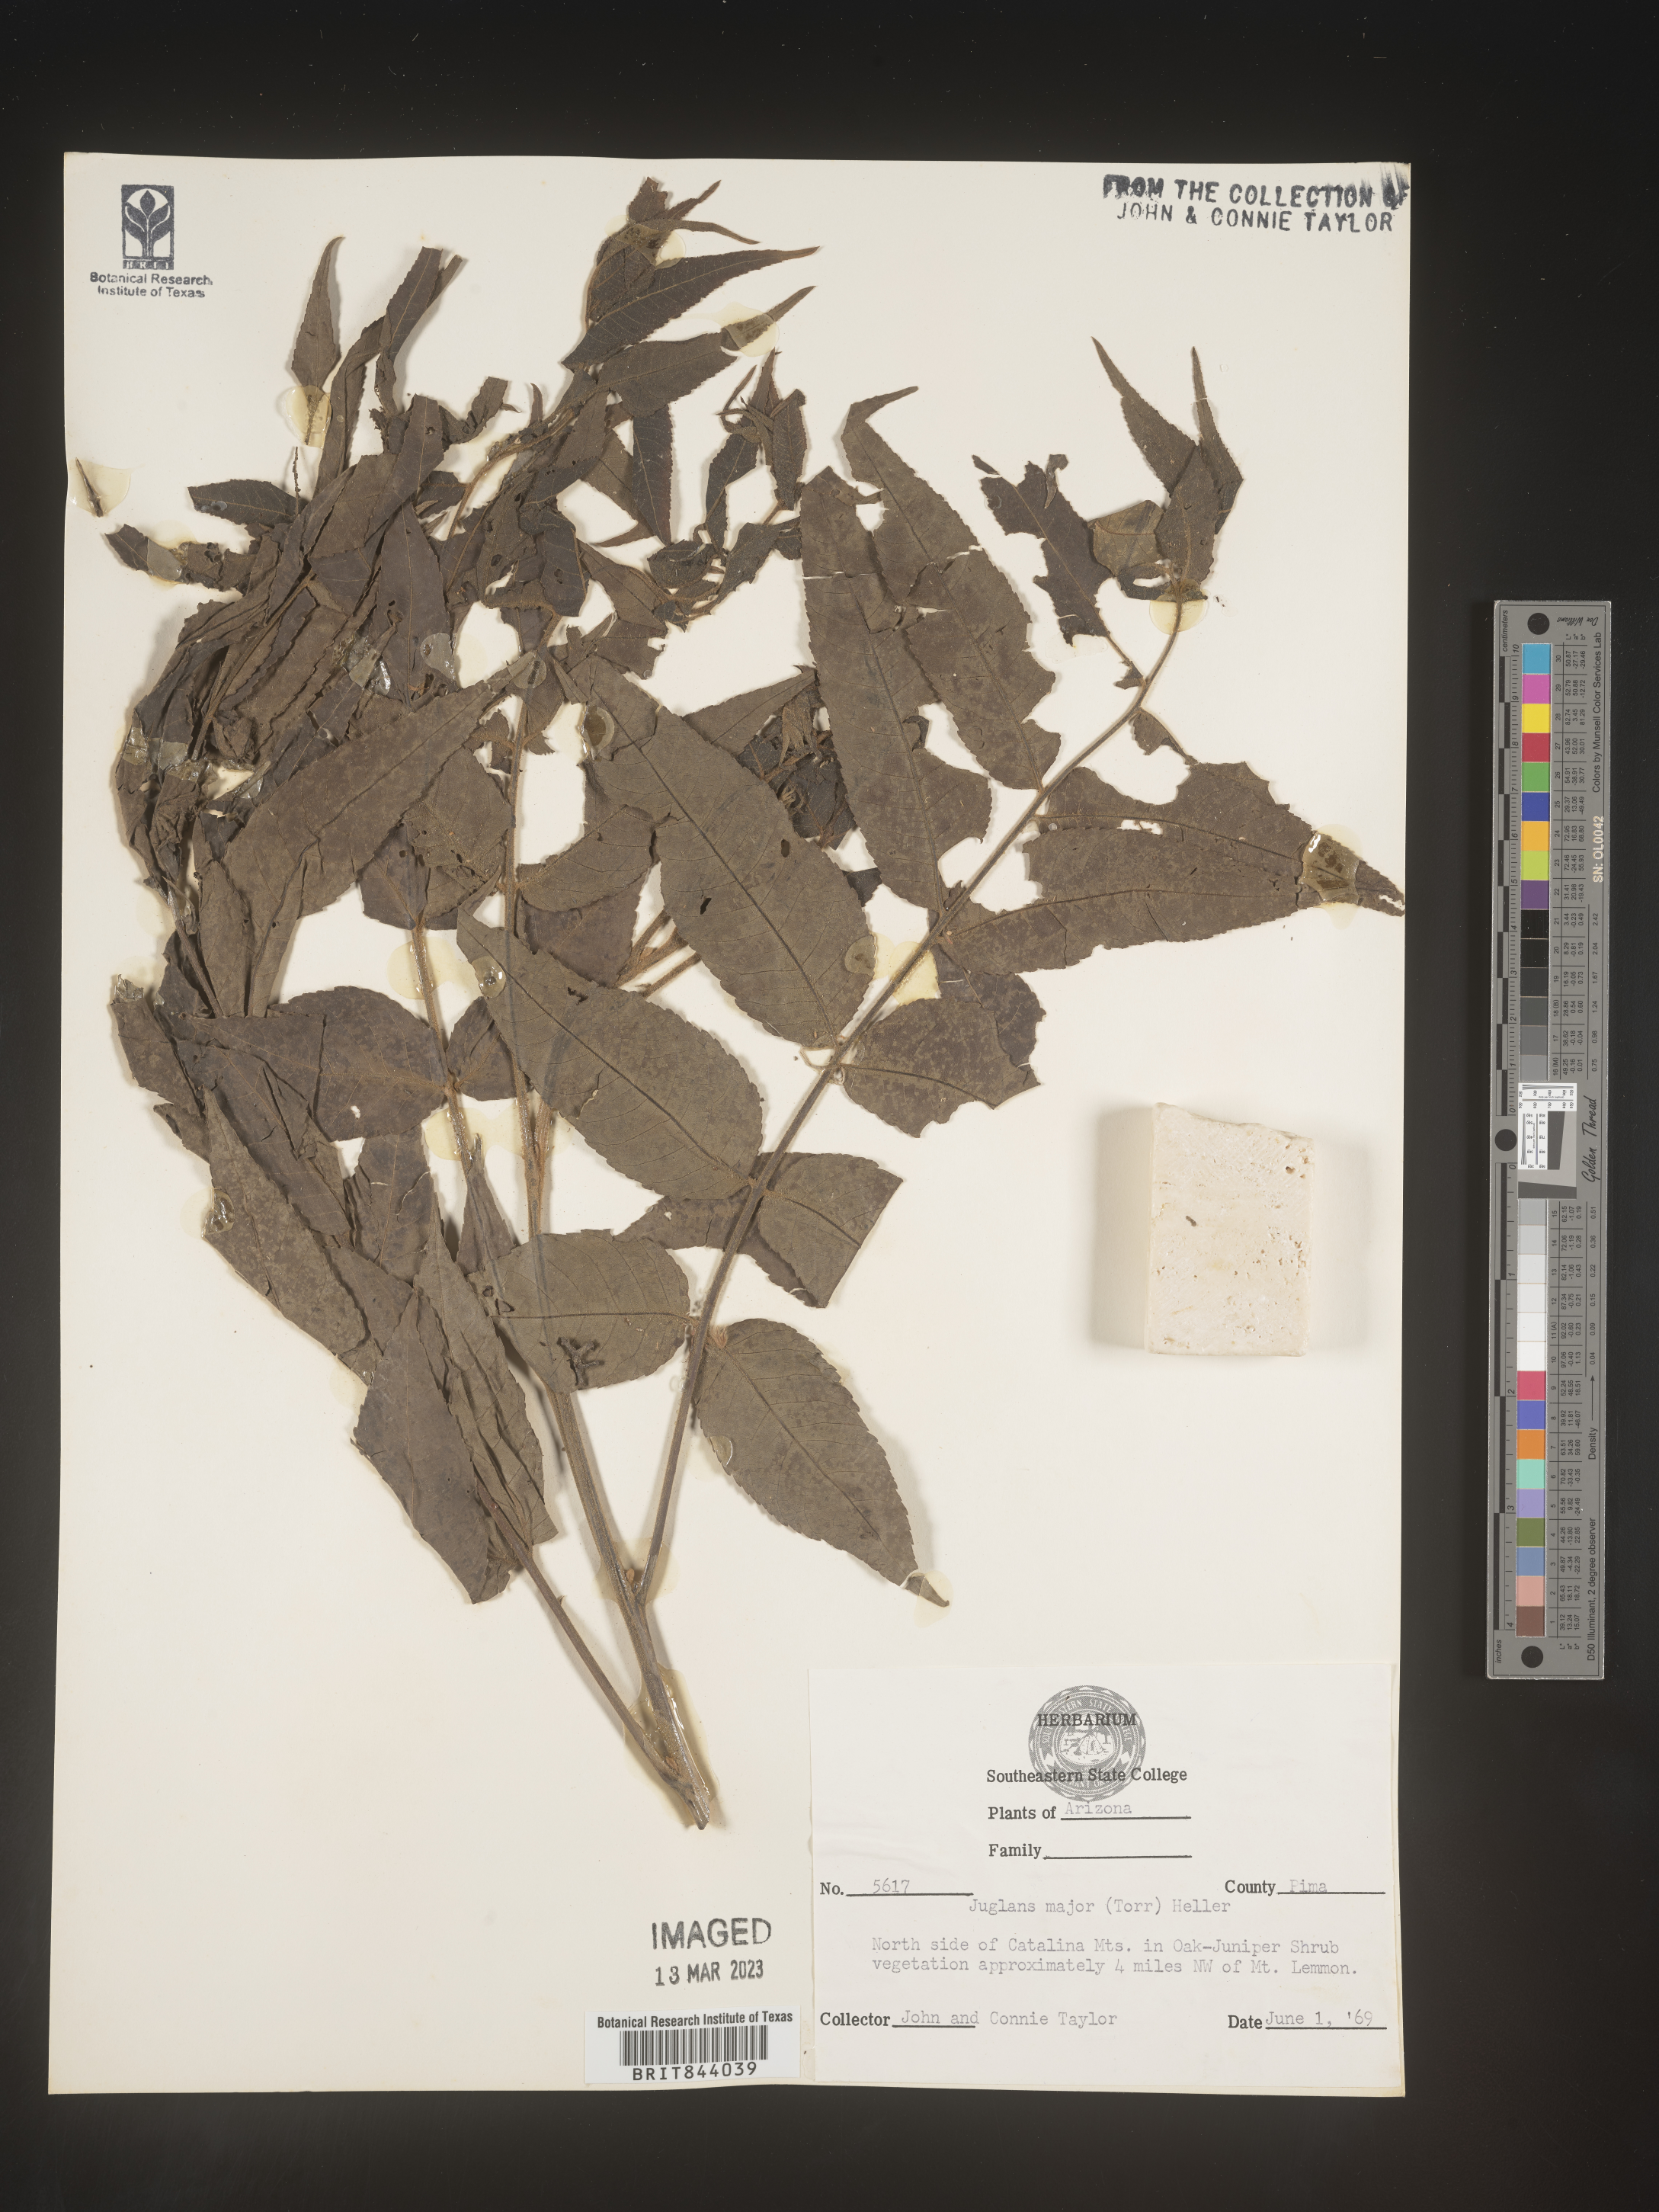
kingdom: Plantae
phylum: Tracheophyta
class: Magnoliopsida
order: Fagales
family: Juglandaceae
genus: Juglans
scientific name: Juglans major
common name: Arizona walnut
